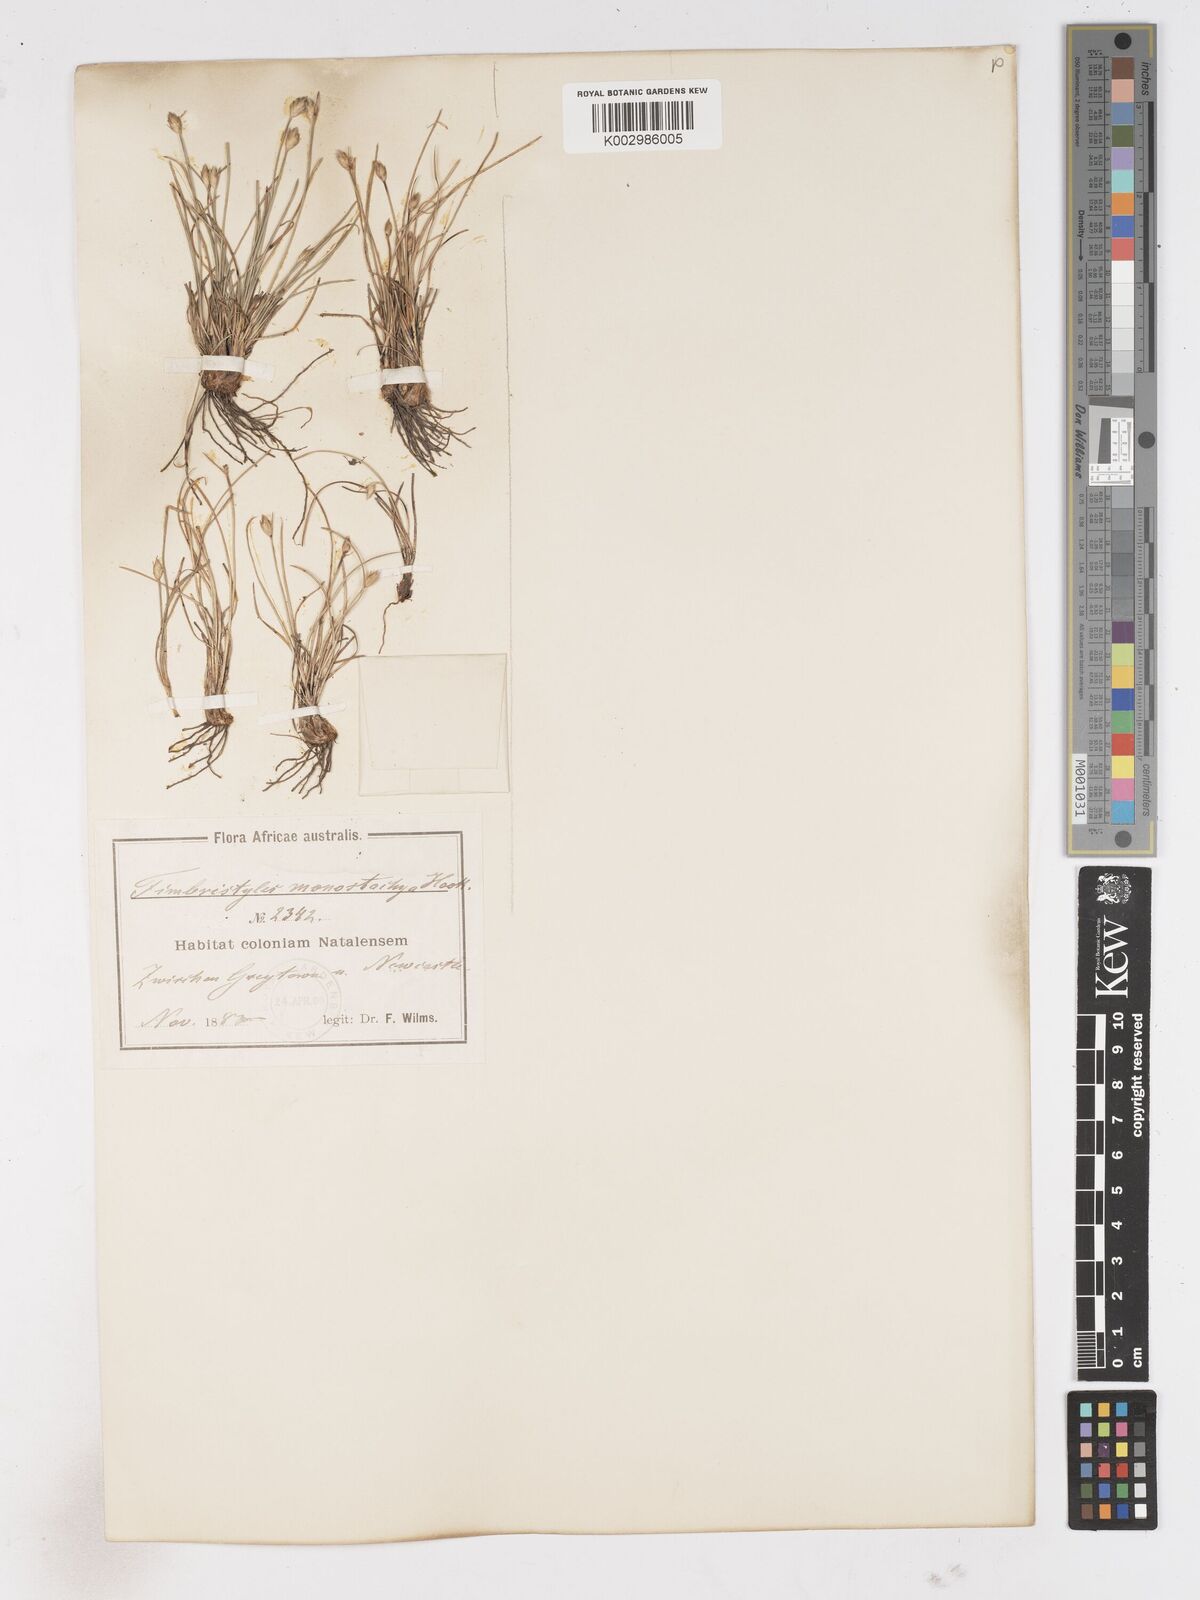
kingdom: Plantae
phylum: Tracheophyta
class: Liliopsida
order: Poales
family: Cyperaceae
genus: Abildgaardia
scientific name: Abildgaardia ovata
